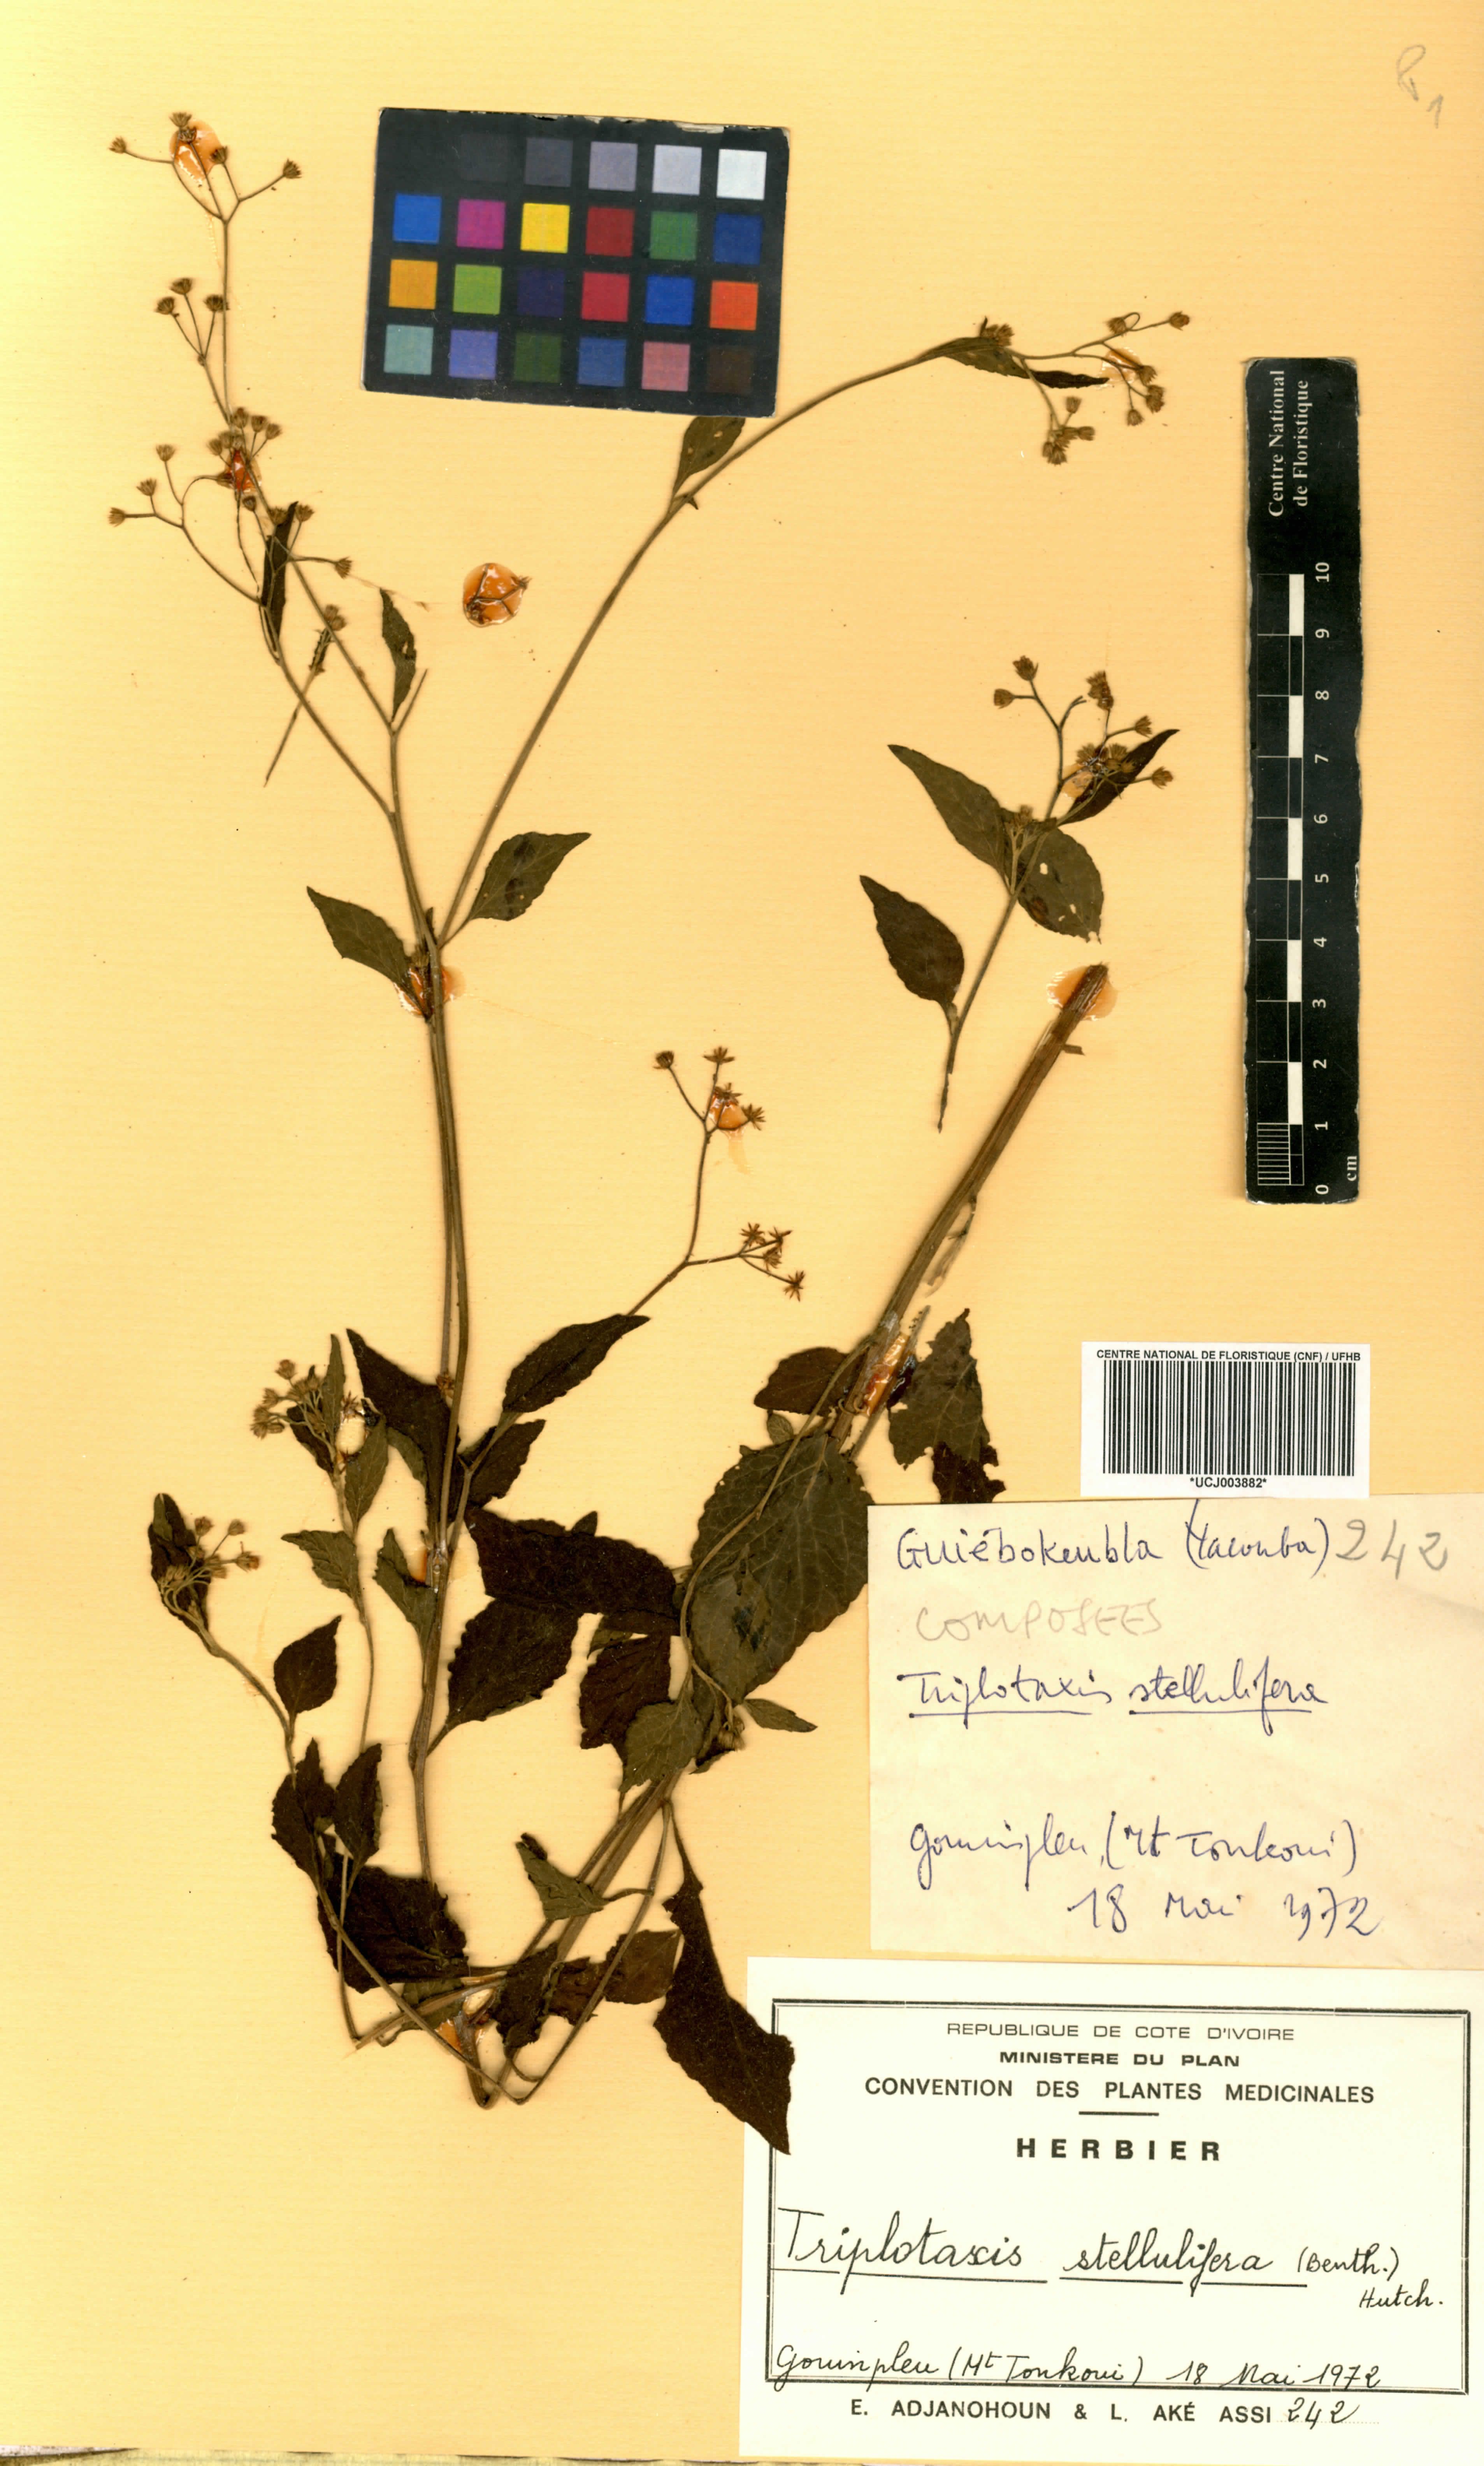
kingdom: Plantae
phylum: Tracheophyta
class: Magnoliopsida
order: Asterales
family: Asteraceae
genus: Cyanthillium
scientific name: Cyanthillium stelluliferum
